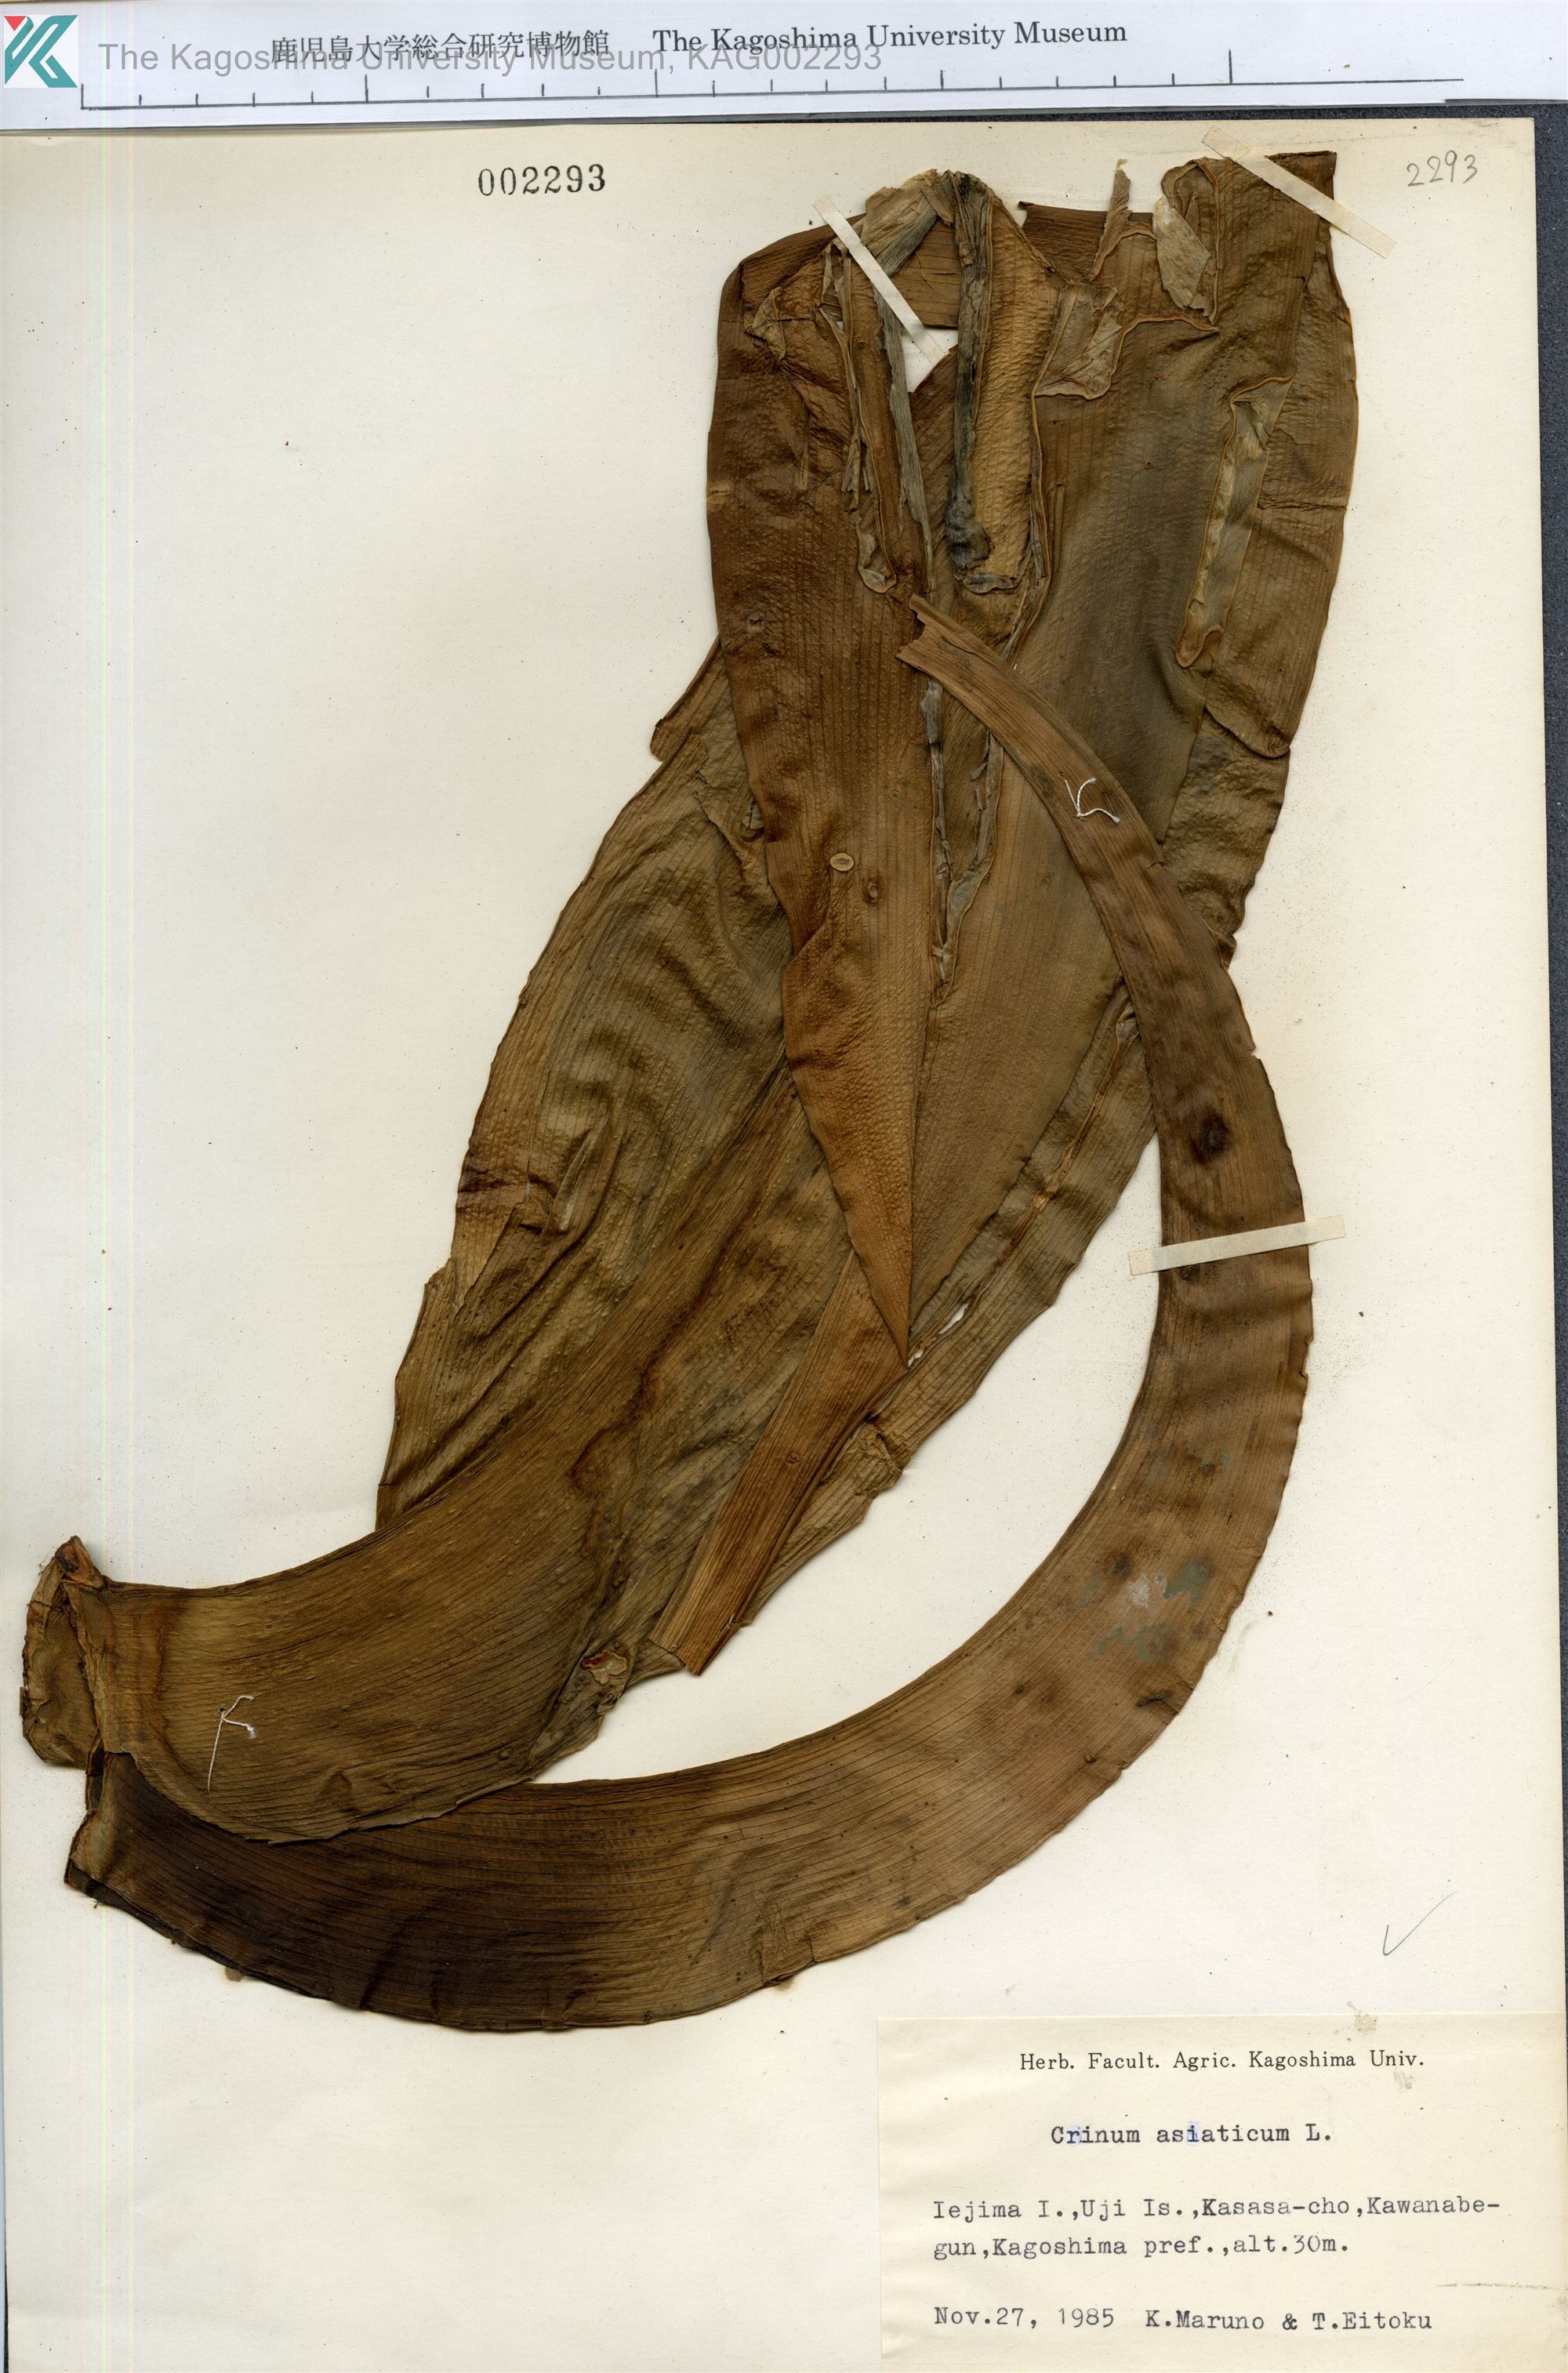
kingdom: Plantae
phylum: Tracheophyta
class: Liliopsida
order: Asparagales
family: Amaryllidaceae
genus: Crinum
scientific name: Crinum asiaticum
